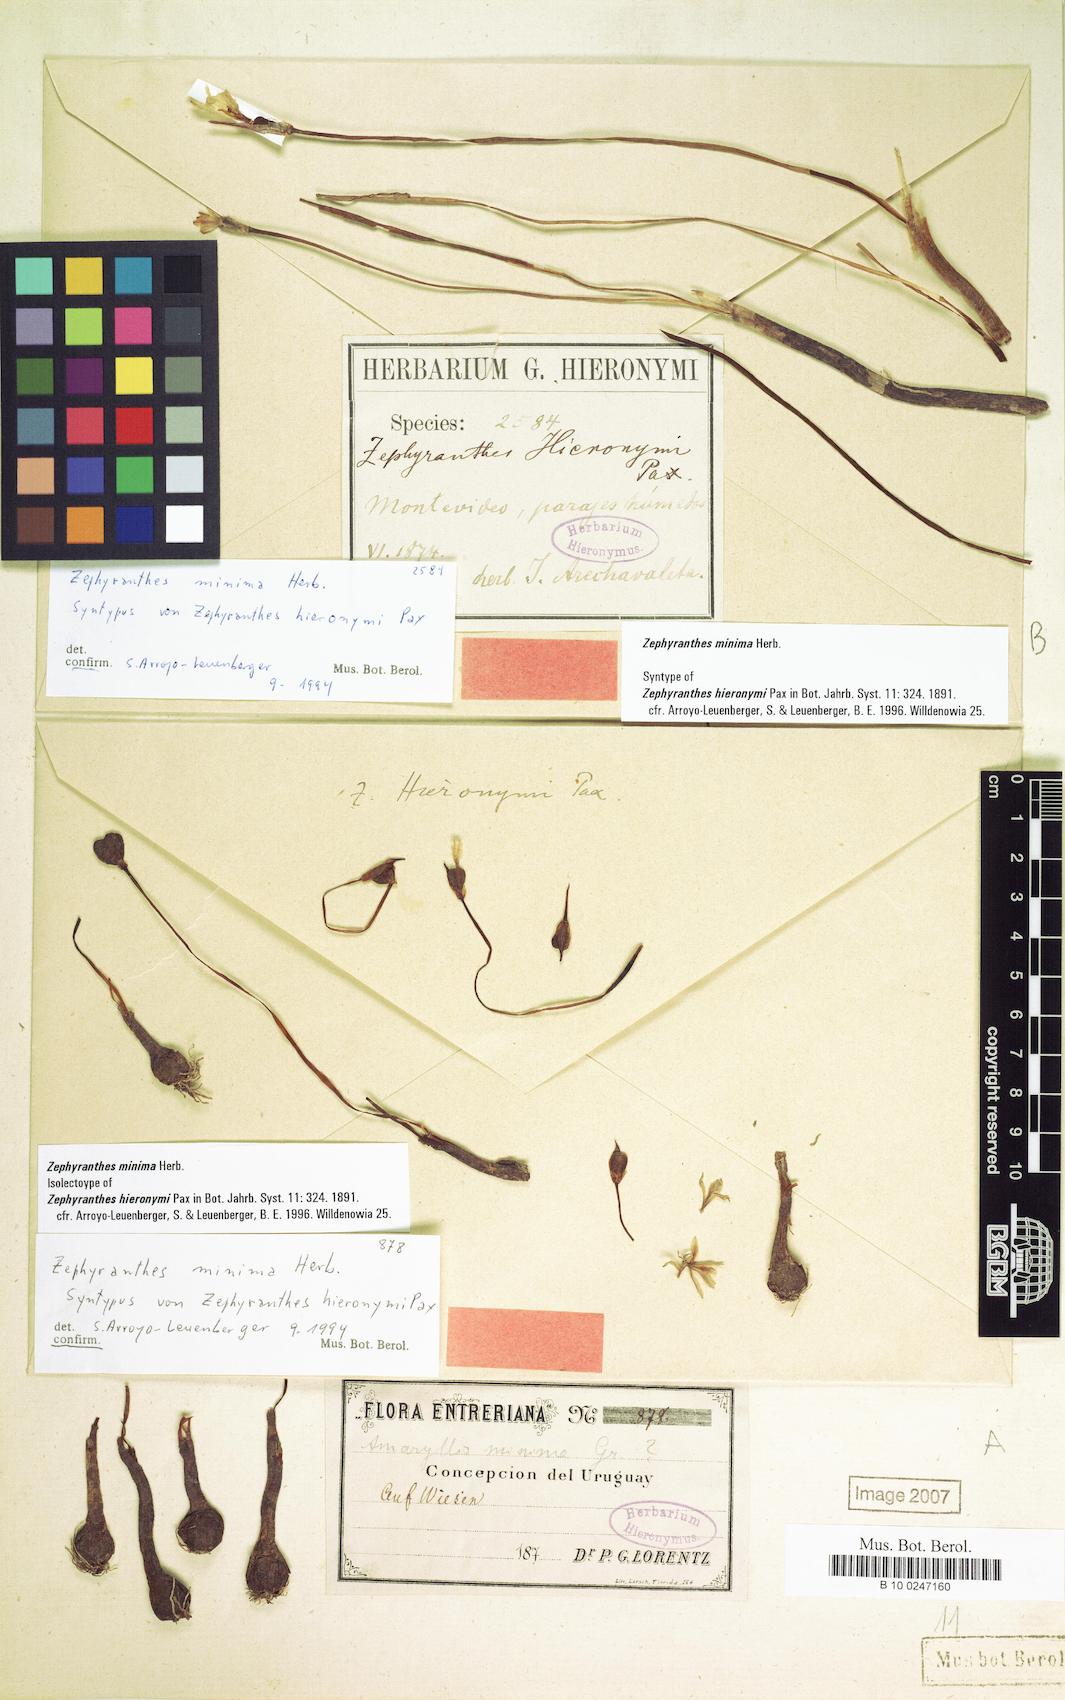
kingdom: Plantae
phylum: Tracheophyta
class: Liliopsida
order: Asparagales
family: Amaryllidaceae
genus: Zephyranthes
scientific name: Zephyranthes minima
